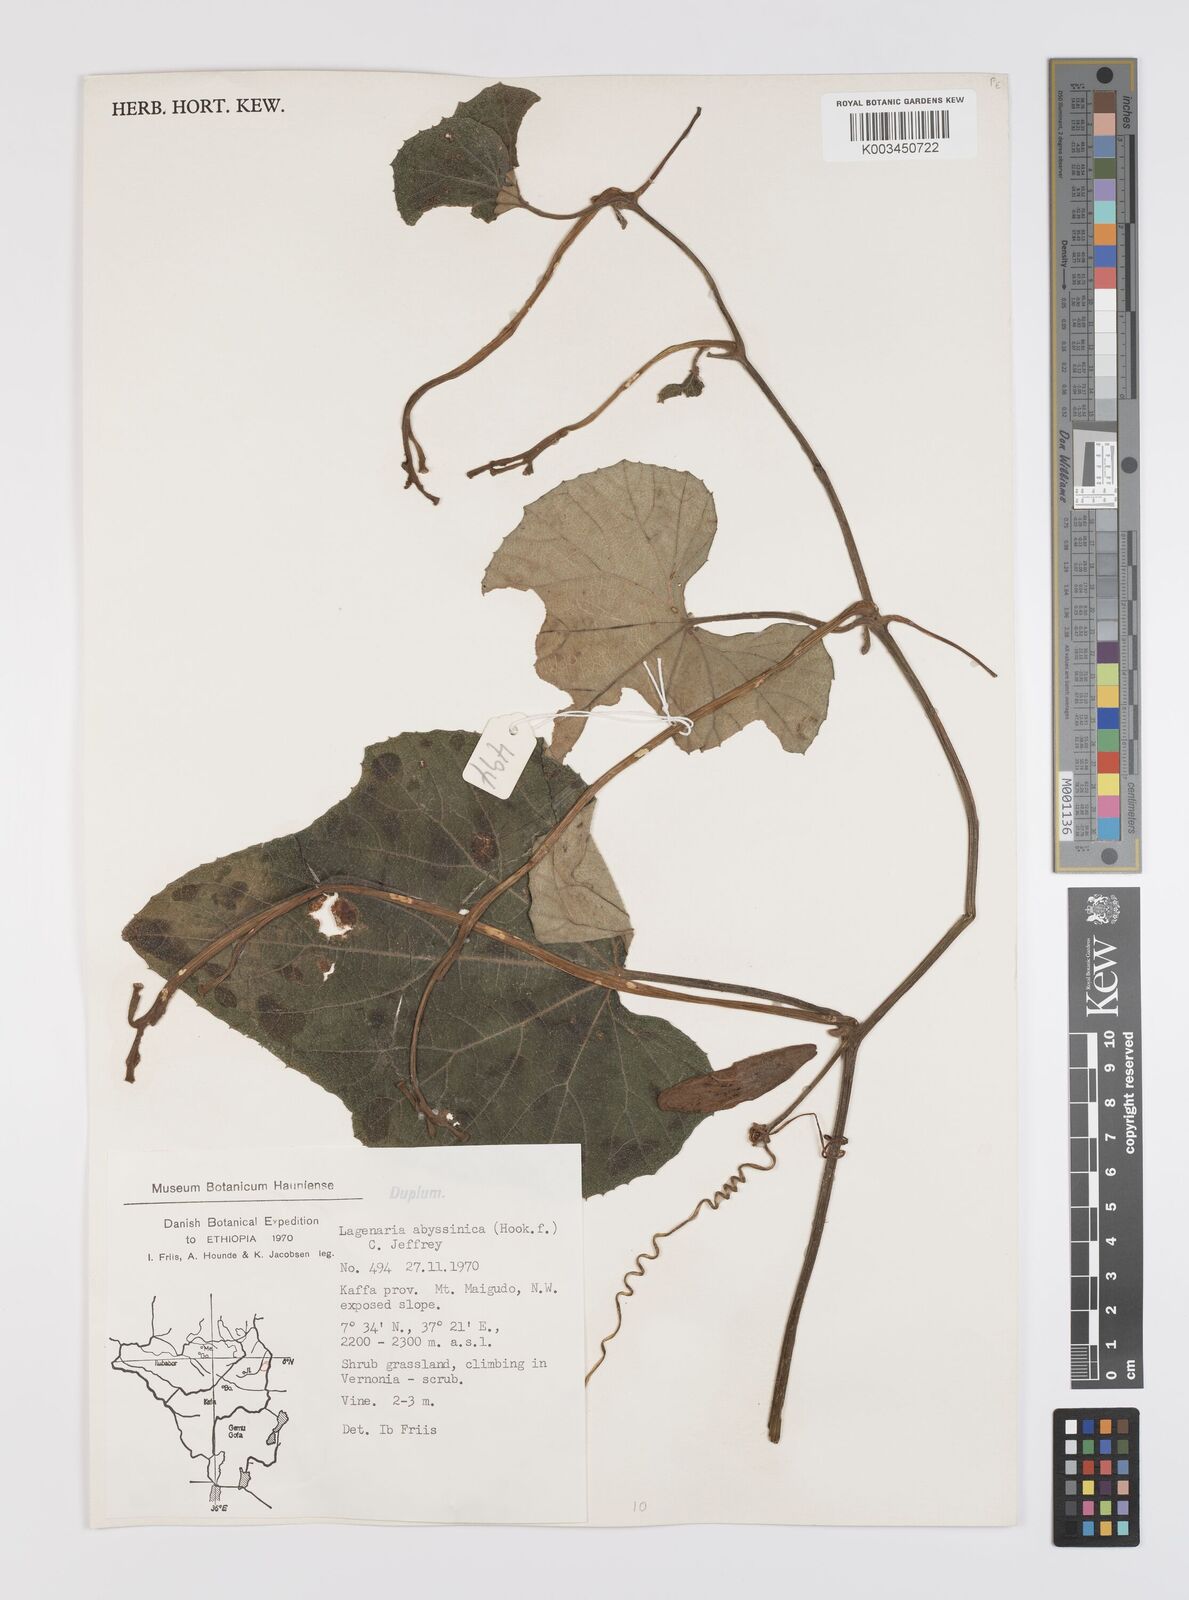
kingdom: Plantae
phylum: Tracheophyta
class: Magnoliopsida
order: Cucurbitales
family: Cucurbitaceae
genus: Lagenaria
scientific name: Lagenaria abyssinica
